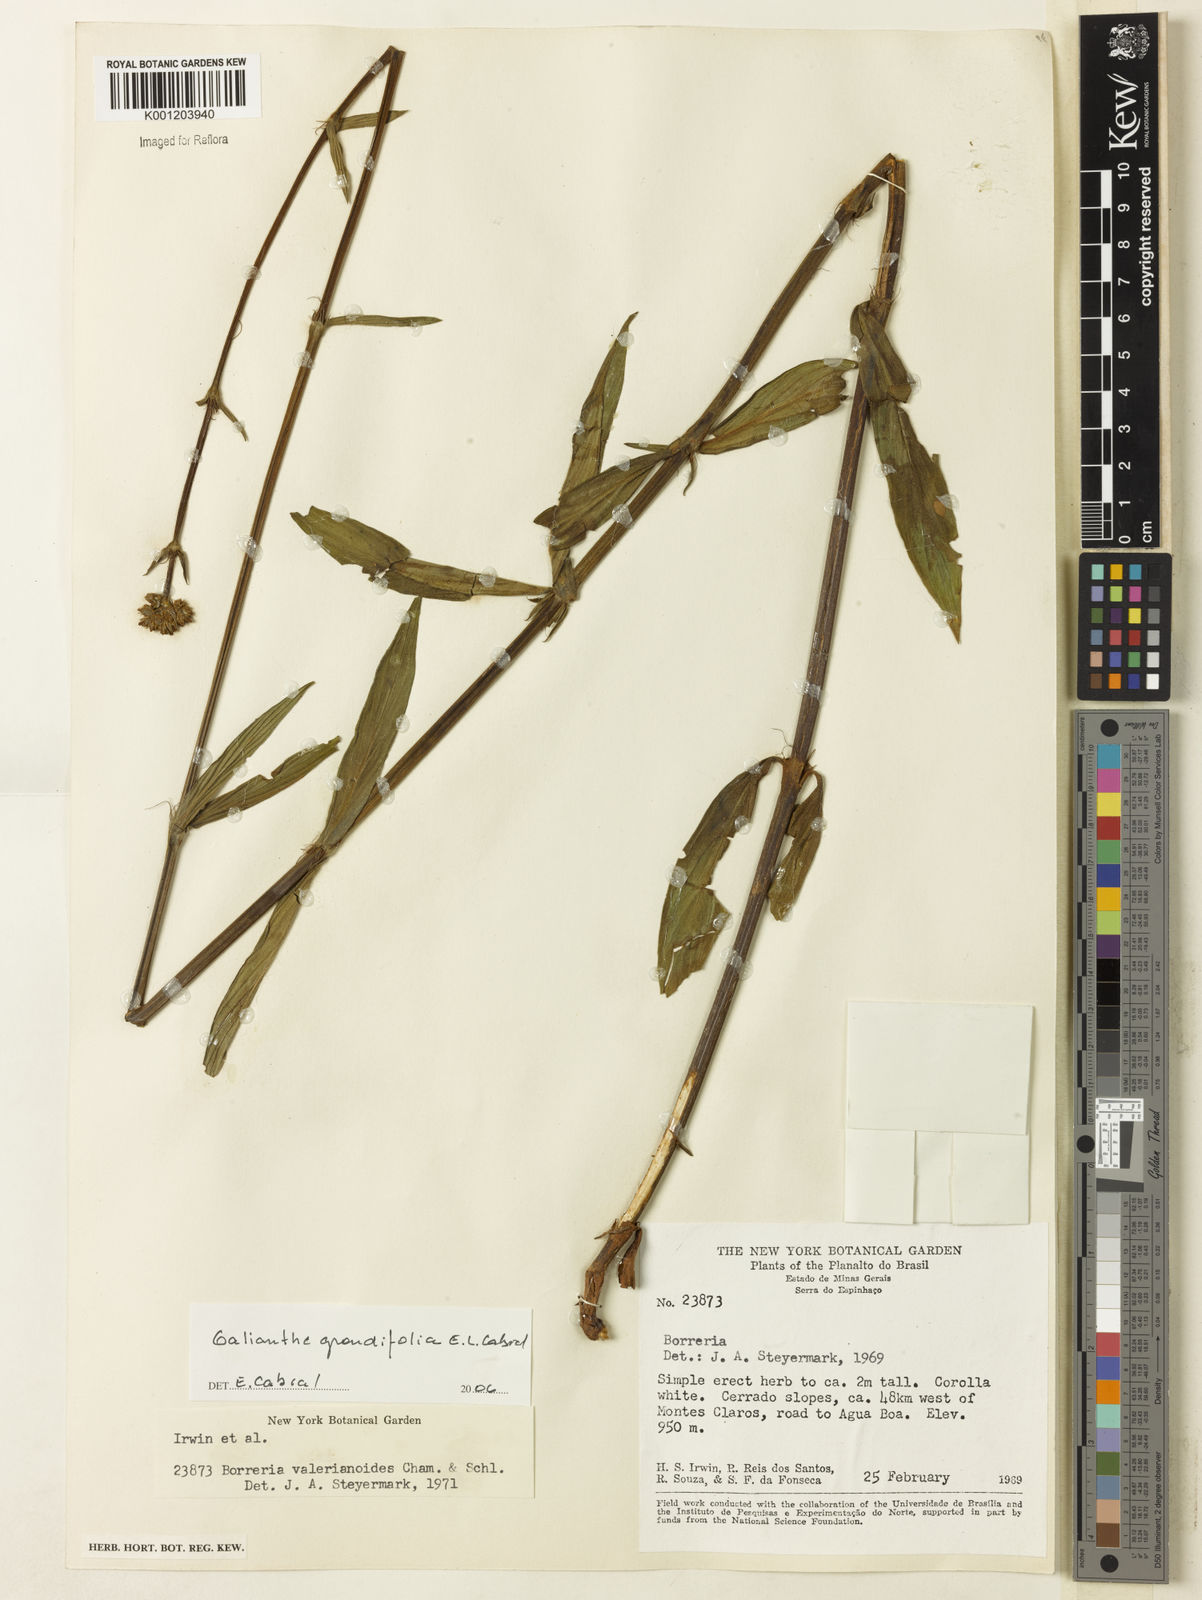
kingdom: Plantae
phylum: Tracheophyta
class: Magnoliopsida
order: Gentianales
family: Rubiaceae
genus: Galianthe
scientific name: Galianthe grandifolia
